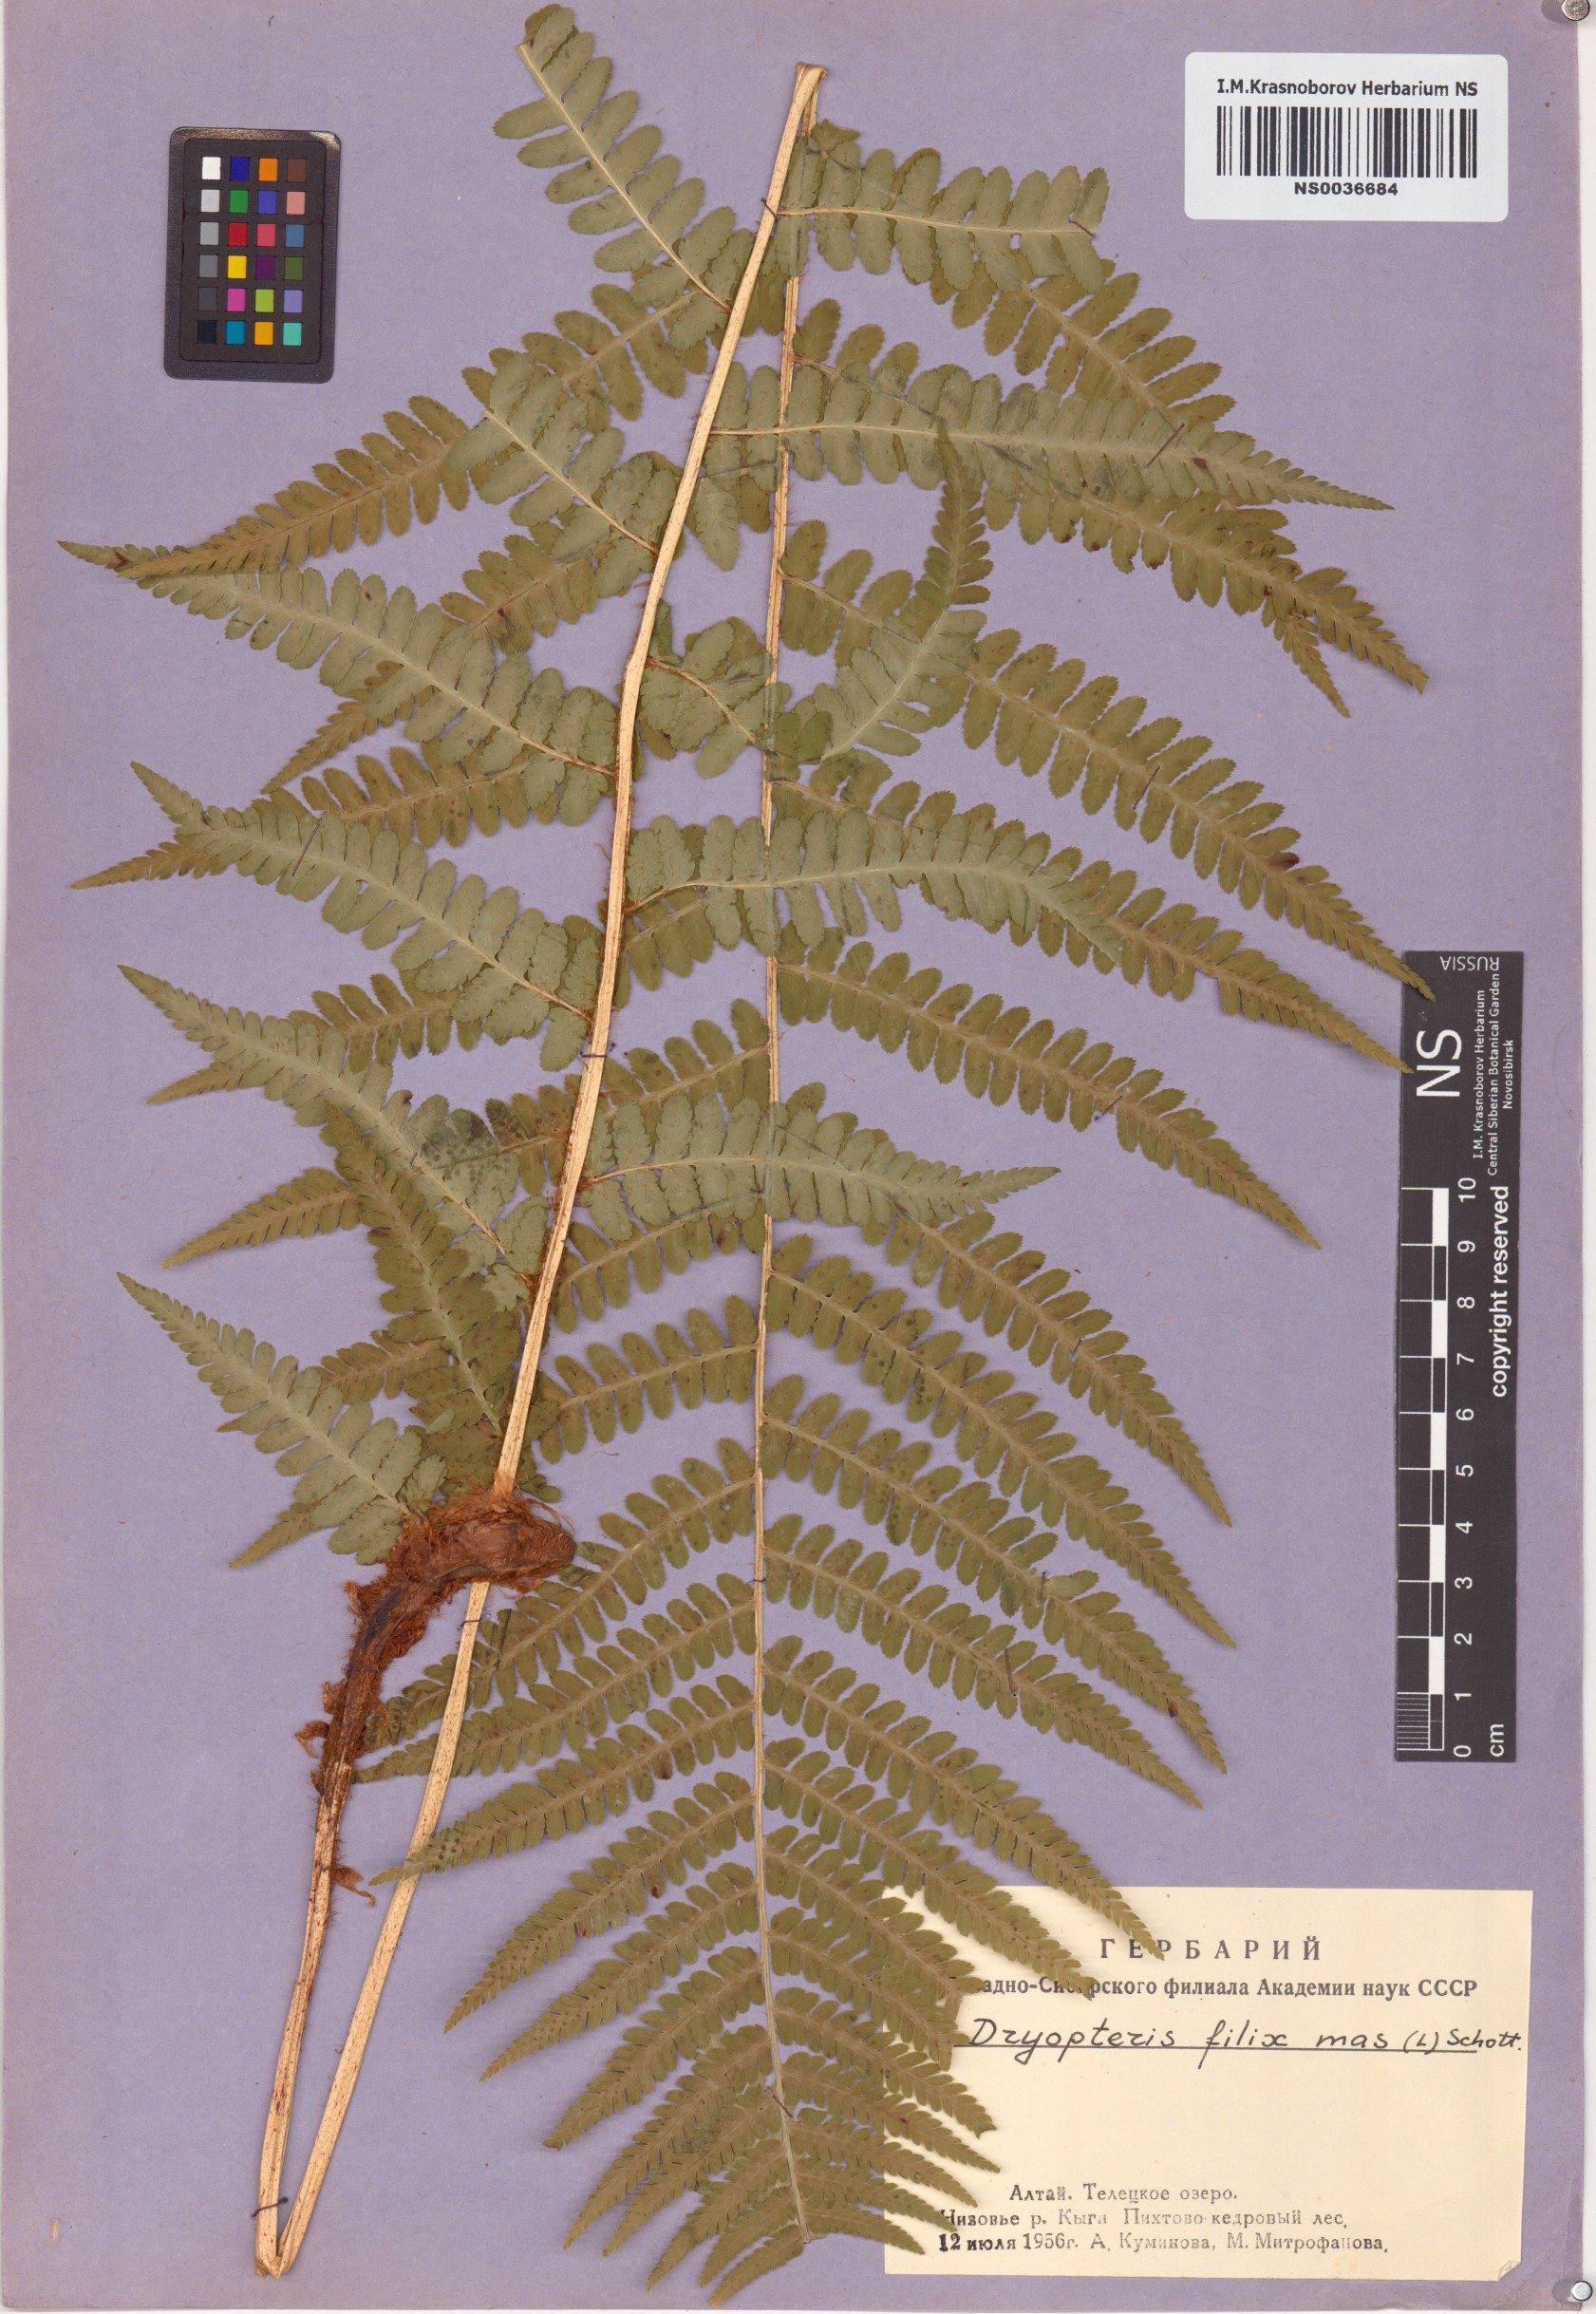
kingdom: Plantae
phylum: Tracheophyta
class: Polypodiopsida
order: Polypodiales
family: Dryopteridaceae
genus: Dryopteris
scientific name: Dryopteris filix-mas
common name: Male fern
